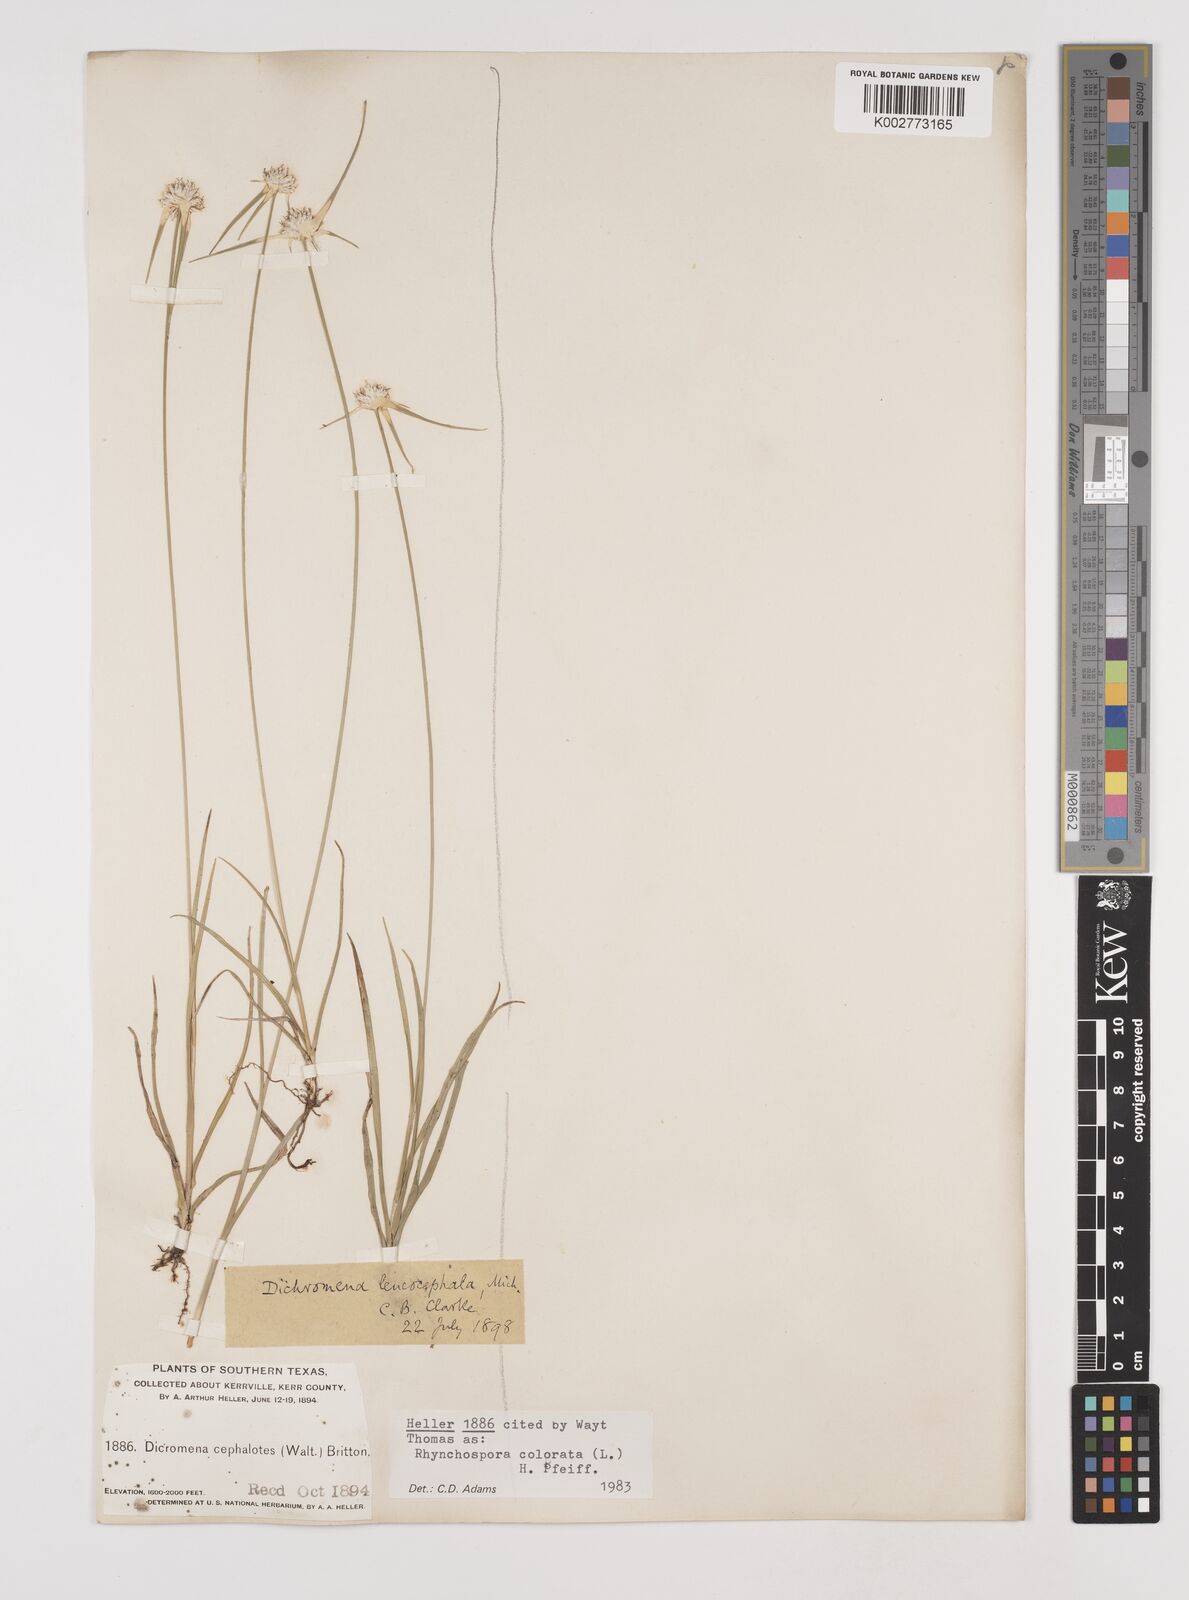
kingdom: Plantae
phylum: Tracheophyta
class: Liliopsida
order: Poales
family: Cyperaceae
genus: Rhynchospora
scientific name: Rhynchospora colorata
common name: Star sedge
